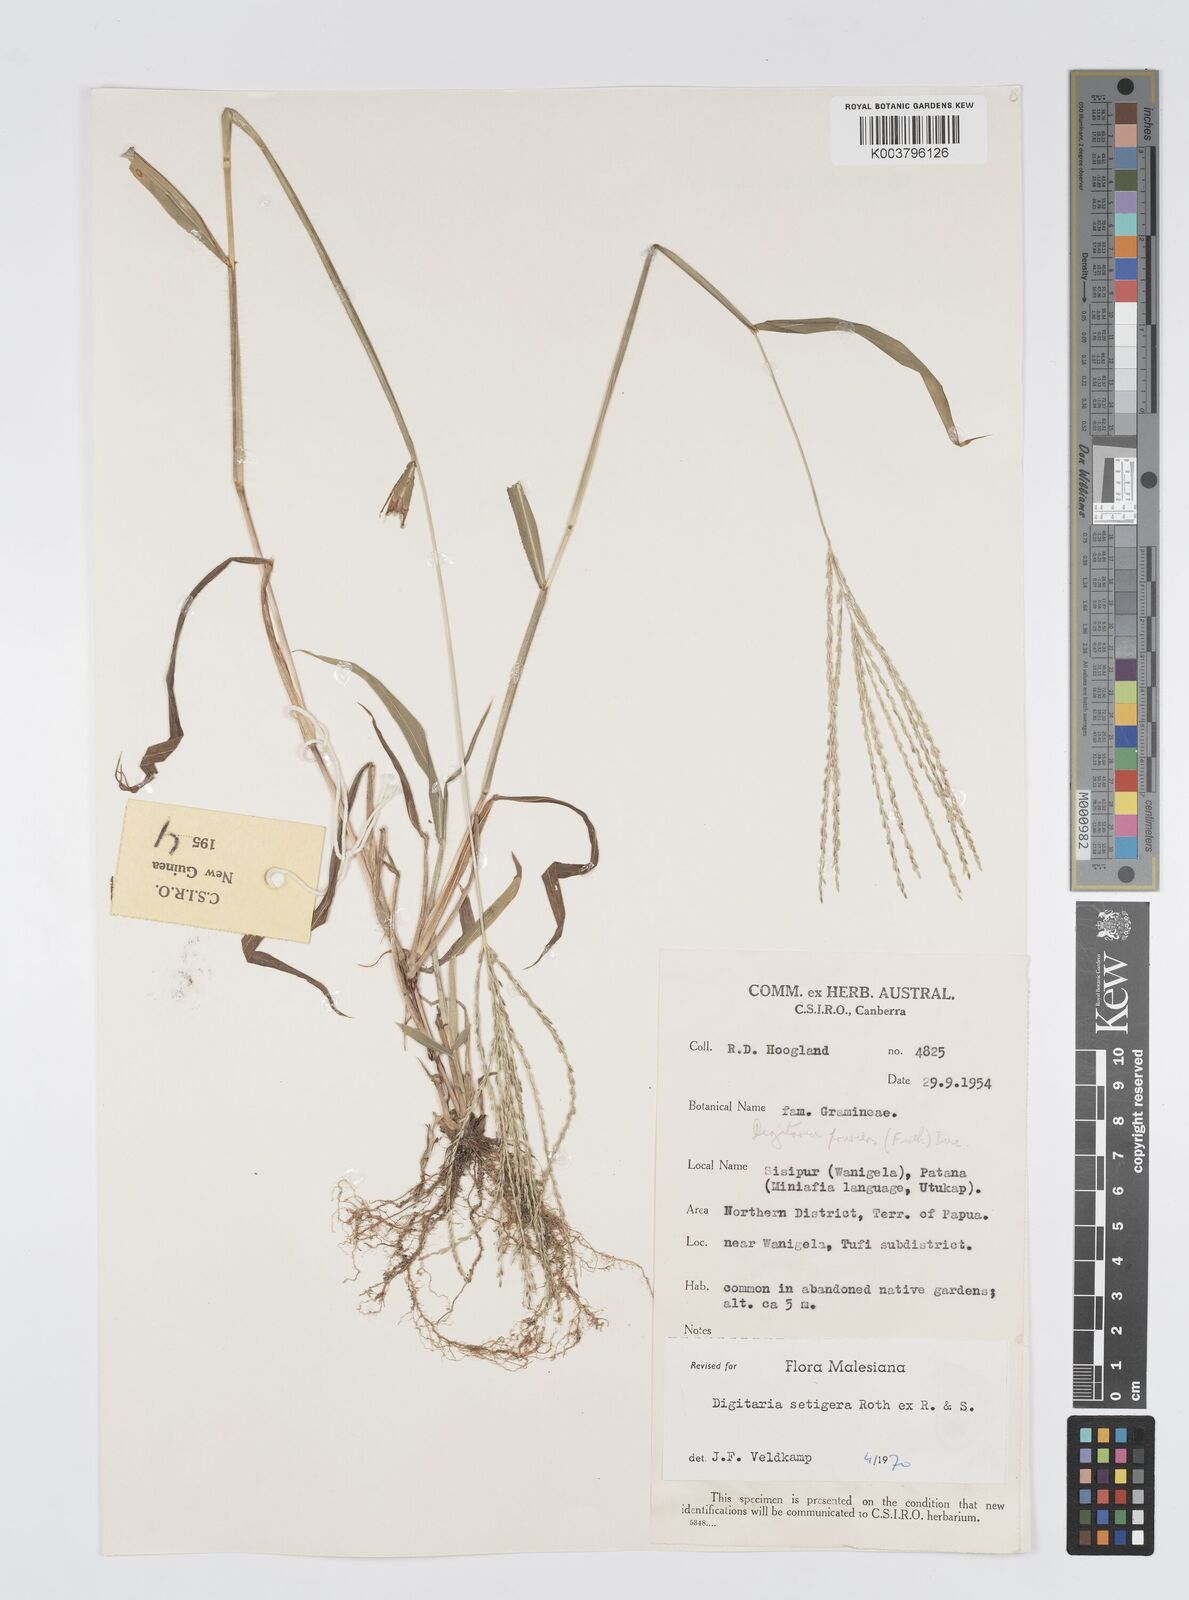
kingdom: Plantae
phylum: Tracheophyta
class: Liliopsida
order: Poales
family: Poaceae
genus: Digitaria
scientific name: Digitaria setigera
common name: East indian crabgrass
